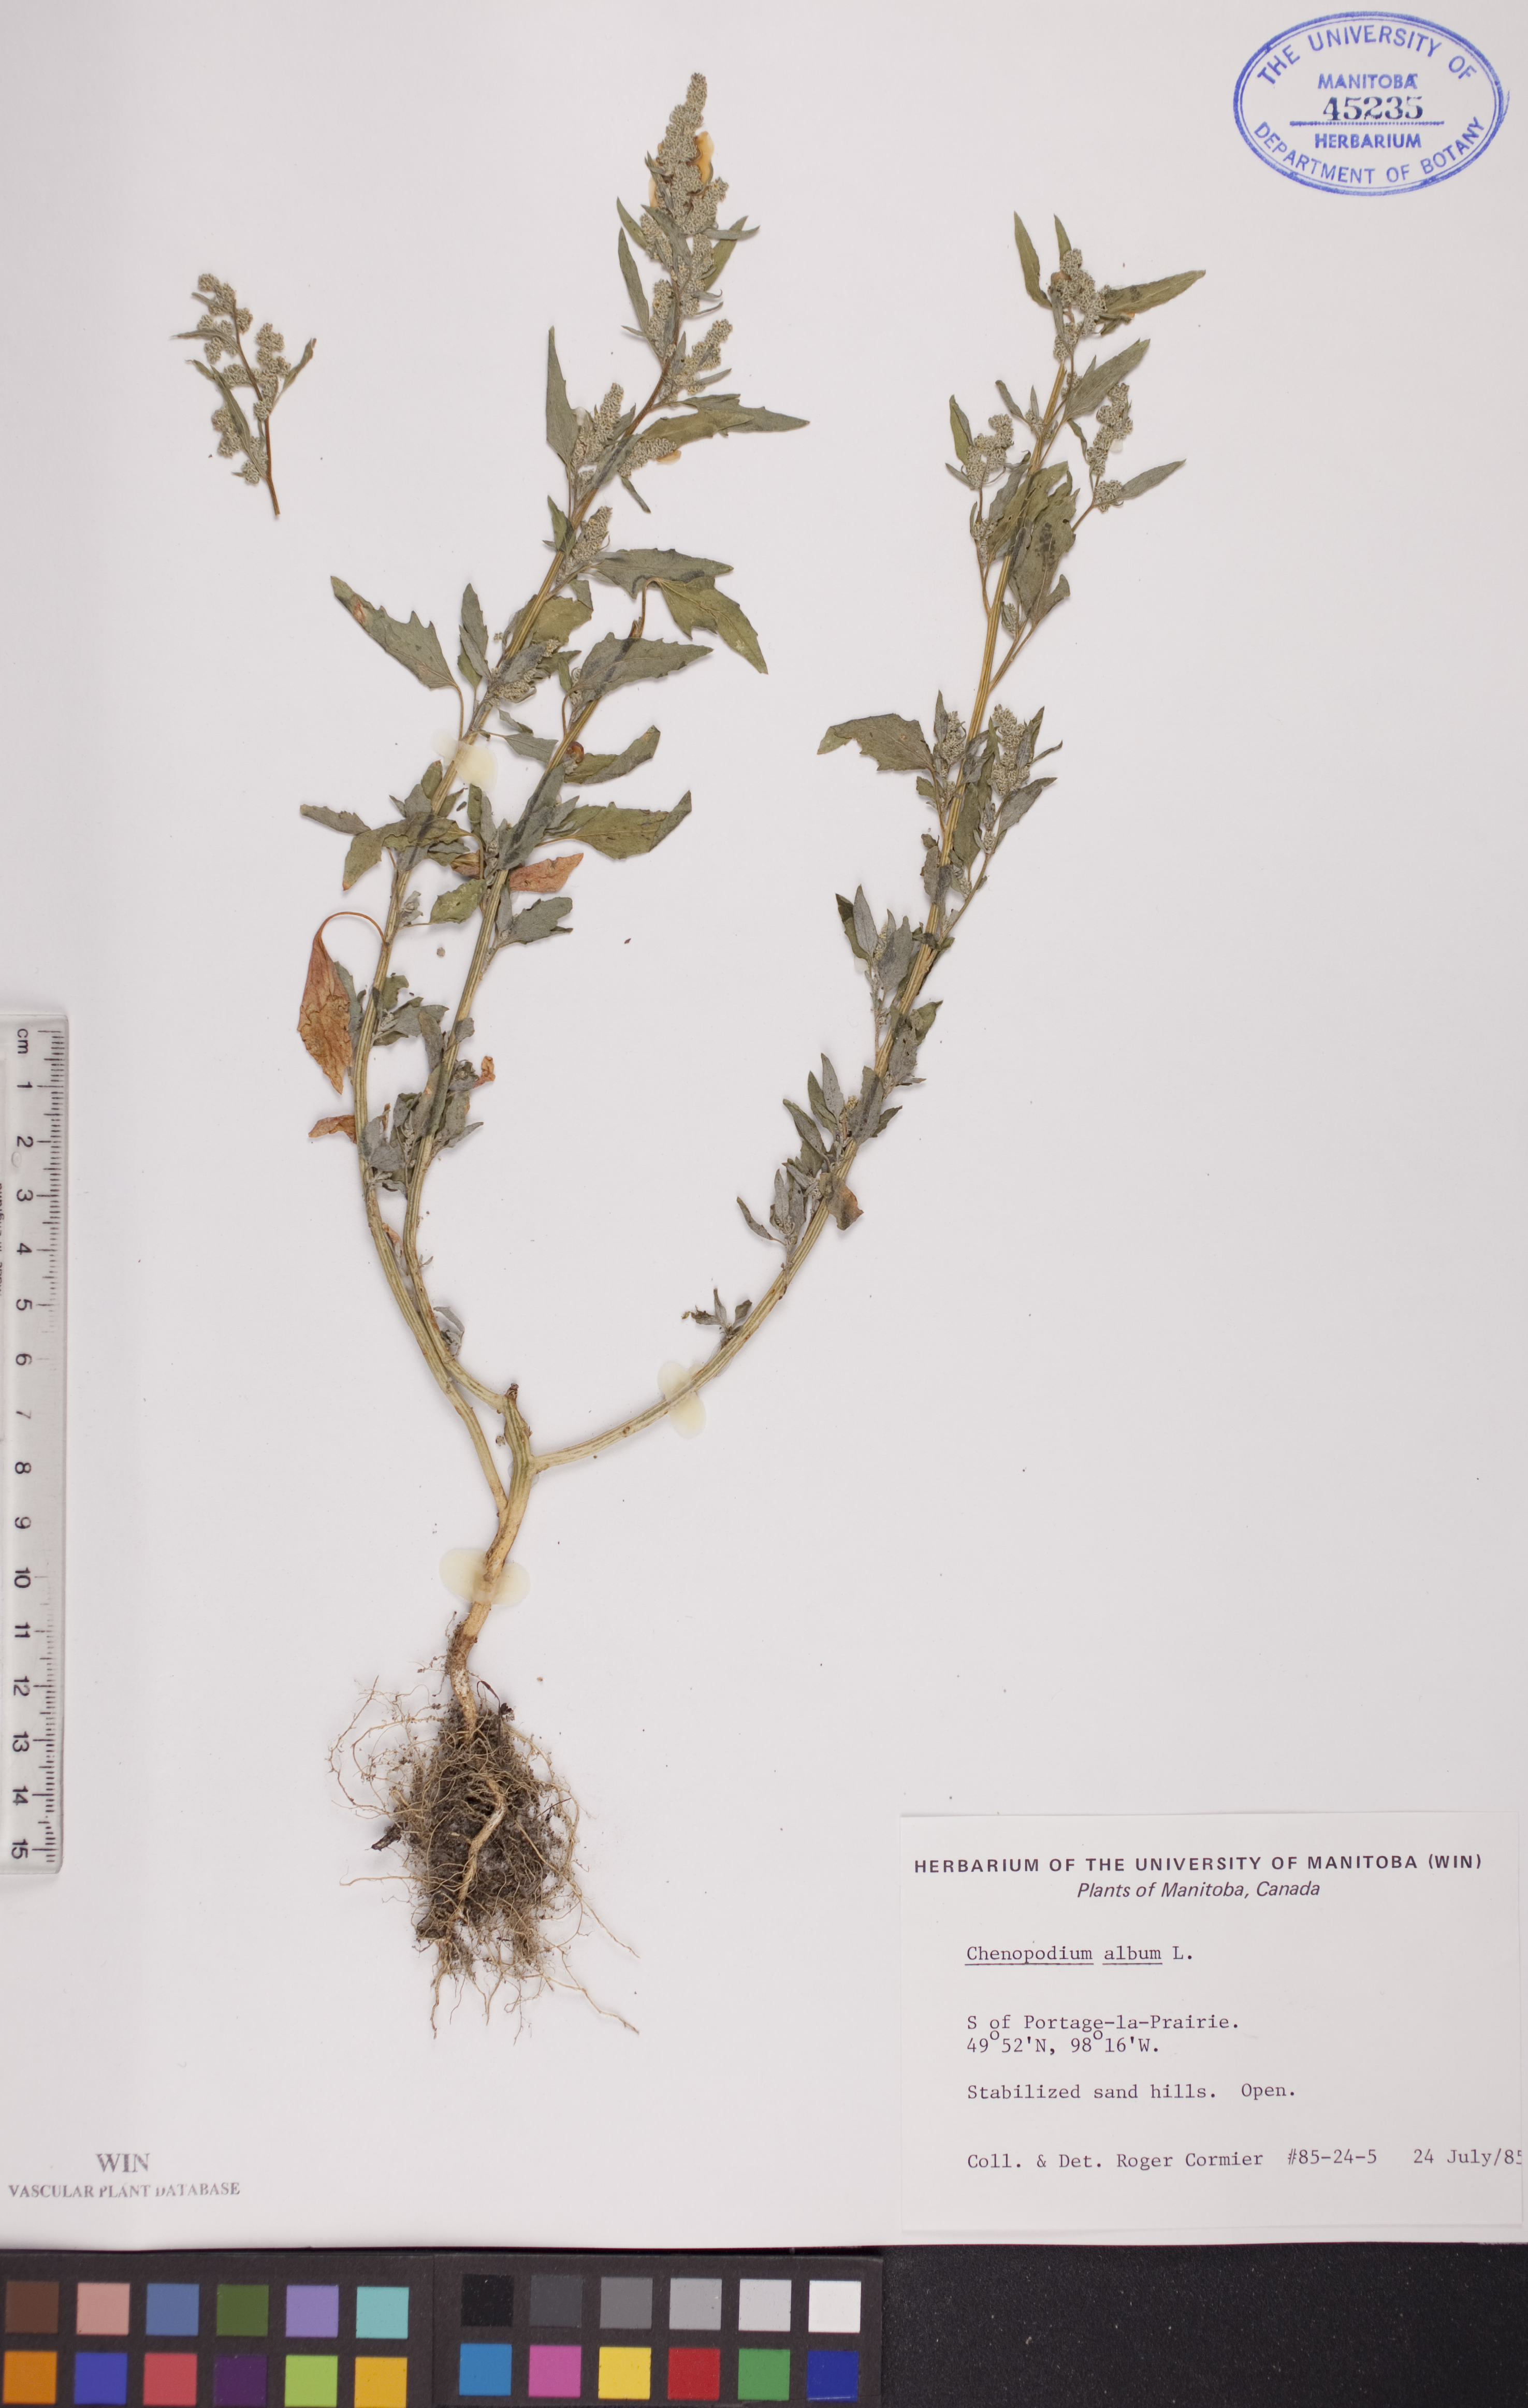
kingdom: Plantae
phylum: Tracheophyta
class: Magnoliopsida
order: Caryophyllales
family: Amaranthaceae
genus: Chenopodium
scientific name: Chenopodium album
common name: Fat-hen
